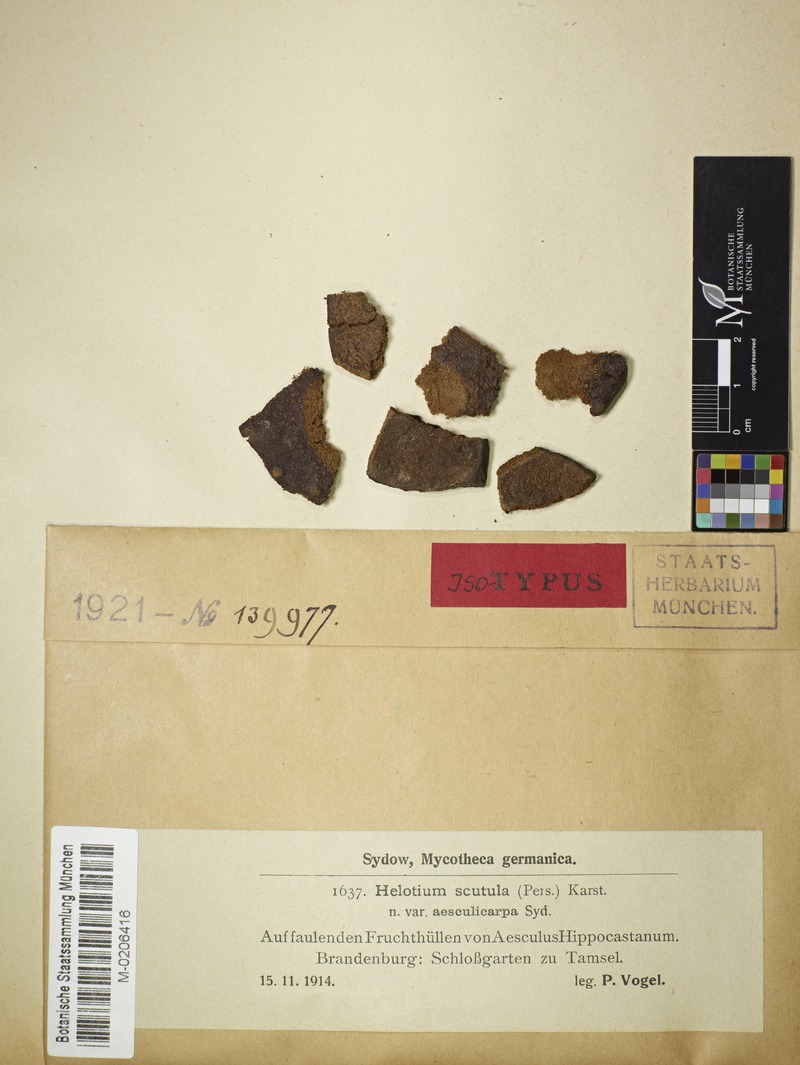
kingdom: Fungi
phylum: Ascomycota
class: Leotiomycetes
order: Helotiales
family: Helotiaceae
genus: Hymenoscyphus
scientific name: Hymenoscyphus scutula
